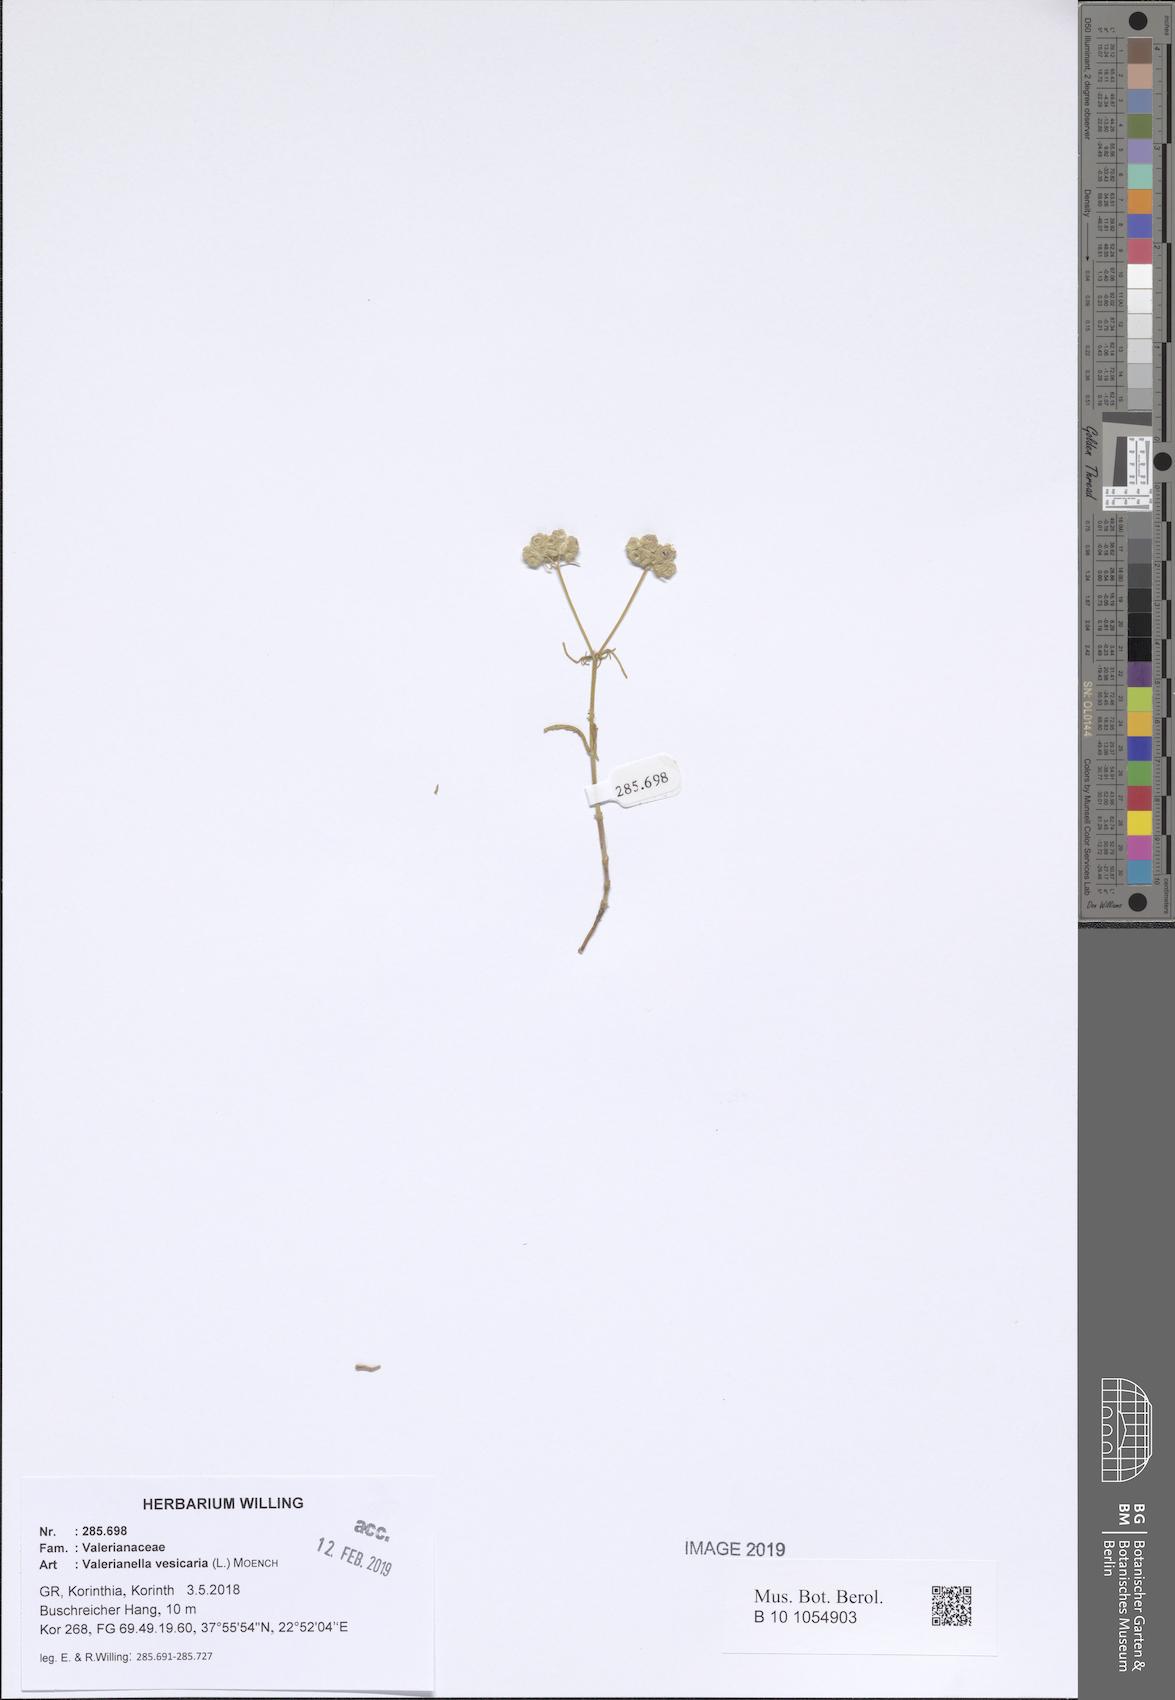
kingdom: Plantae
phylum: Tracheophyta
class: Magnoliopsida
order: Dipsacales
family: Caprifoliaceae
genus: Valerianella
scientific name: Valerianella vesicaria
